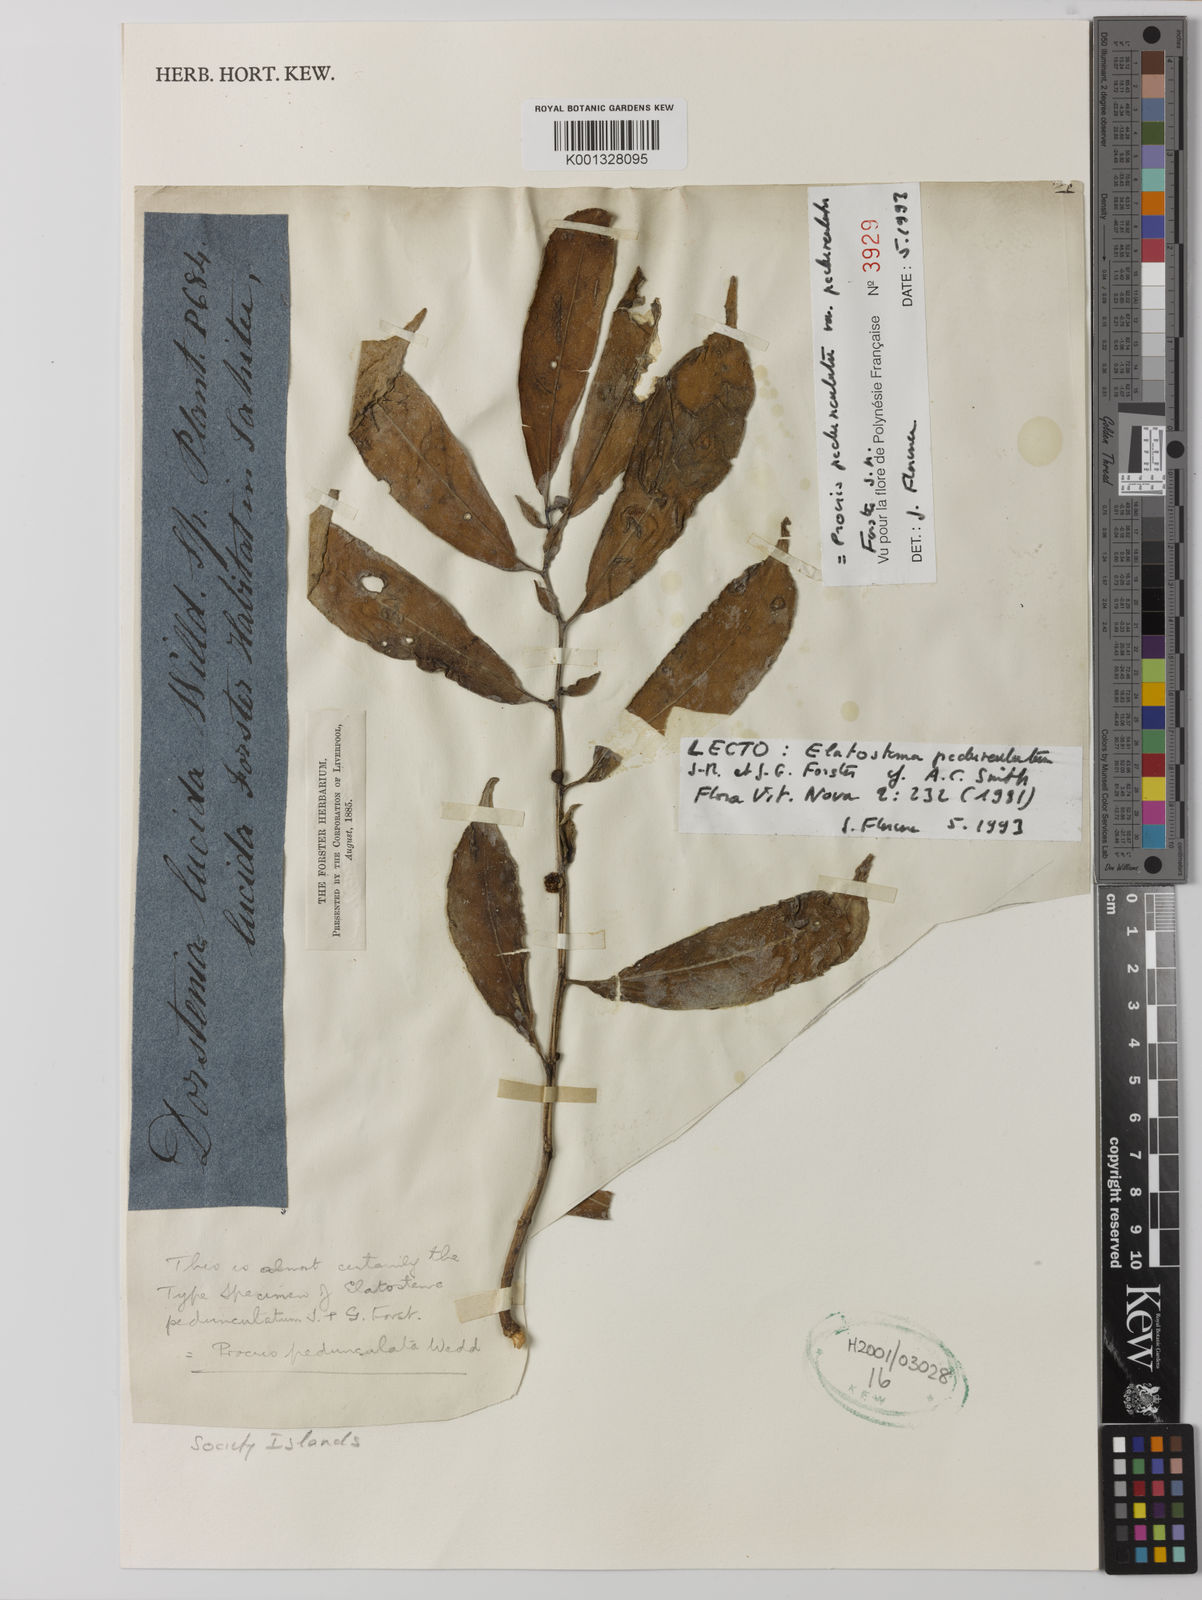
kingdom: Plantae
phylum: Tracheophyta
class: Magnoliopsida
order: Rosales
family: Urticaceae
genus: Procris
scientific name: Procris
